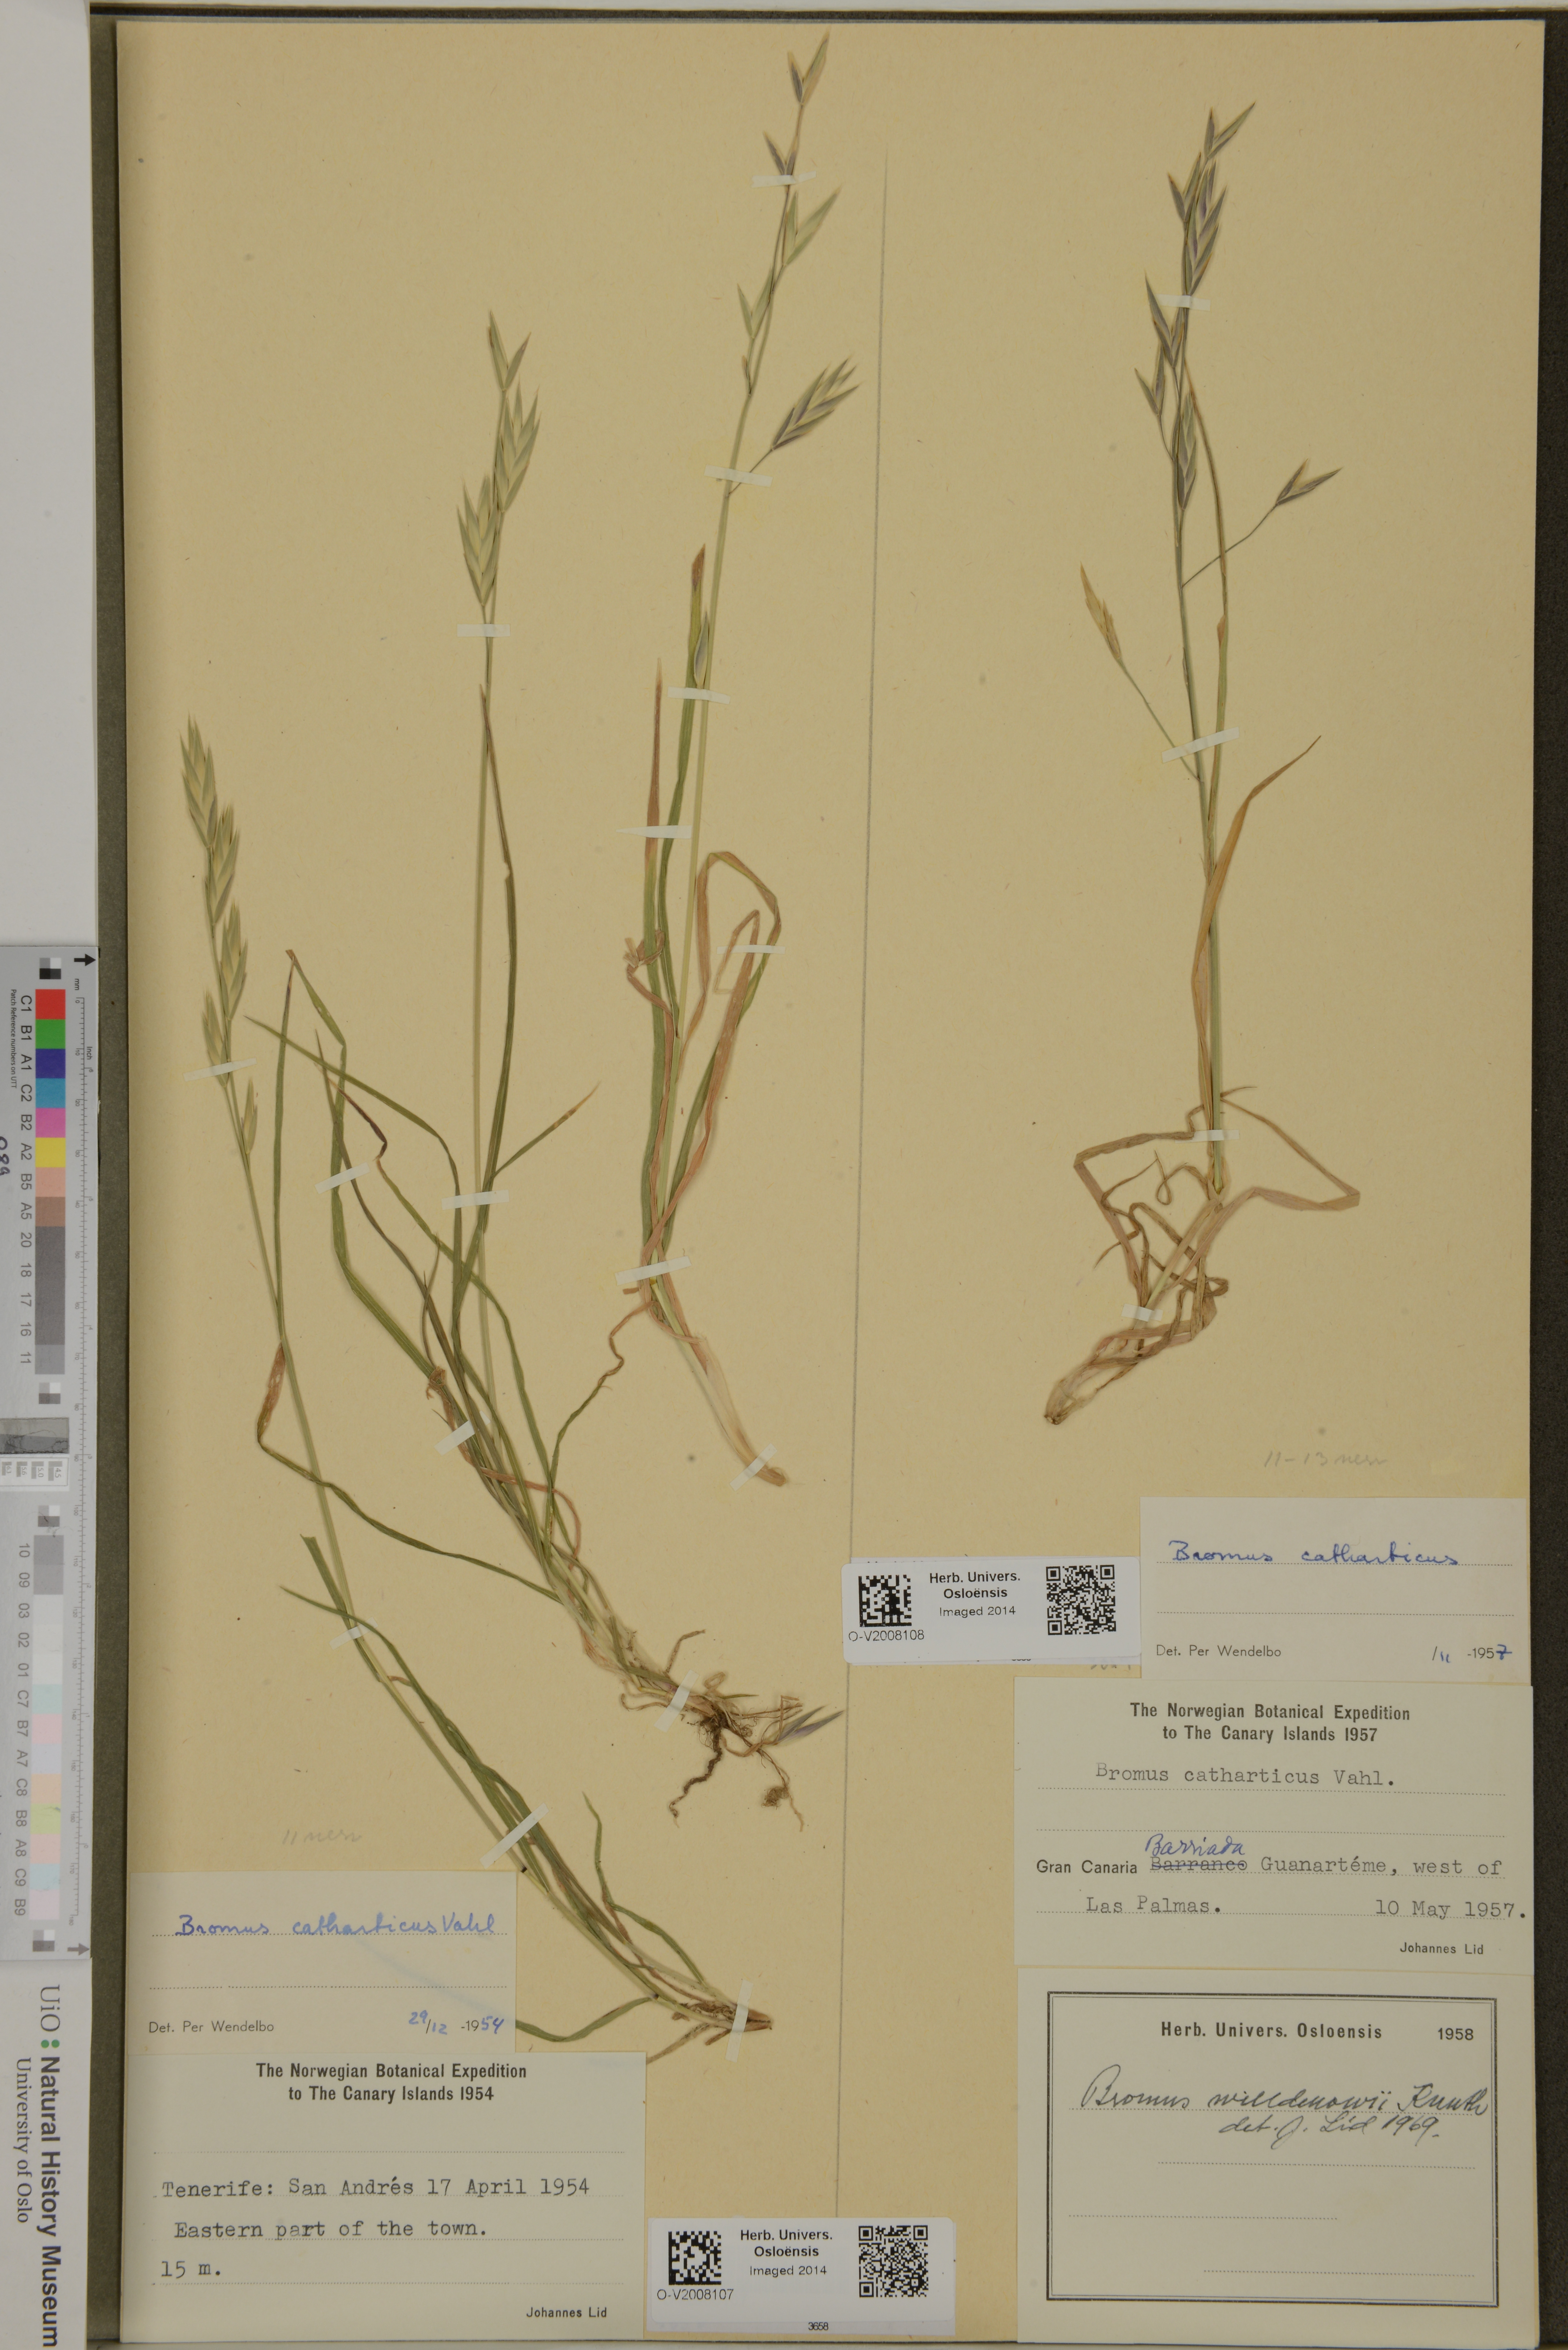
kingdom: Plantae
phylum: Tracheophyta
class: Liliopsida
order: Poales
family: Poaceae
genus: Bromus
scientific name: Bromus catharticus
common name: Rescuegrass
